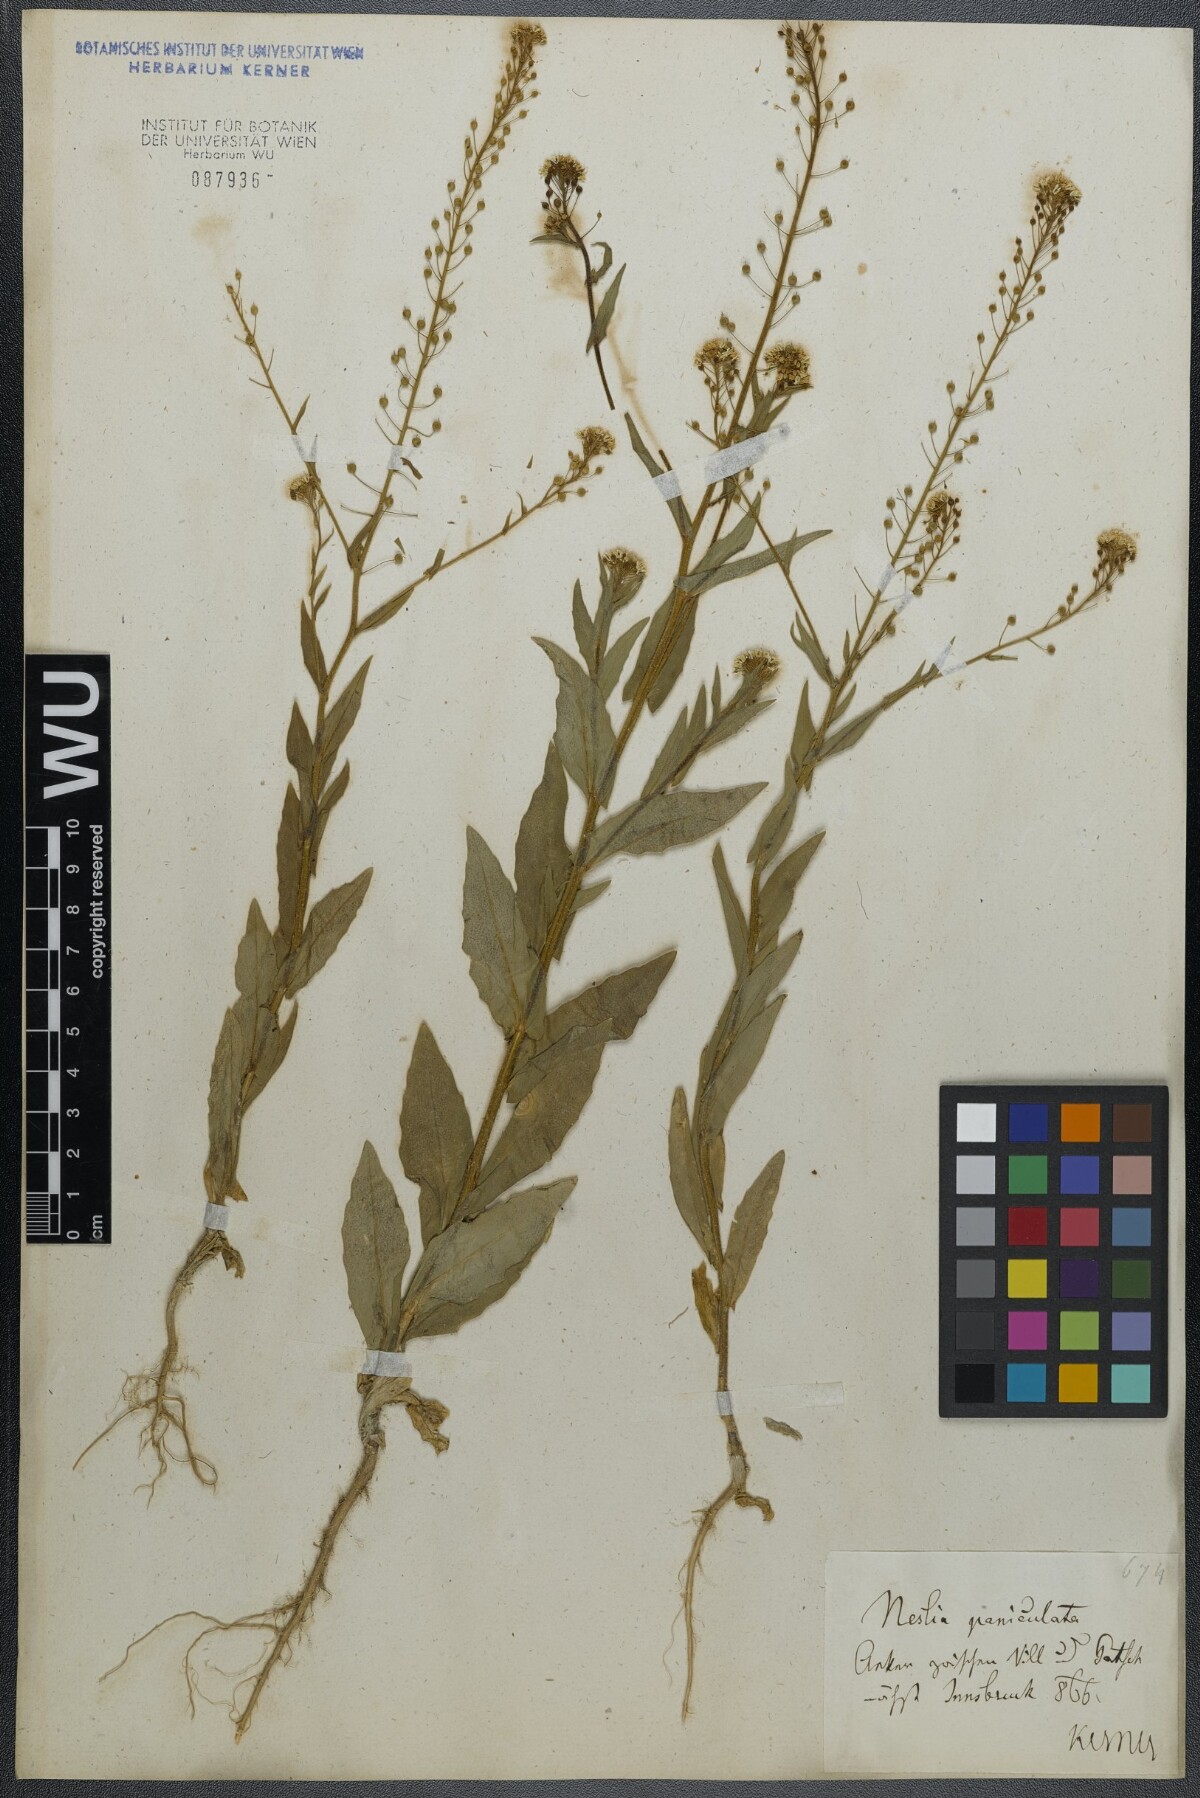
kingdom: Plantae
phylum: Tracheophyta
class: Magnoliopsida
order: Brassicales
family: Brassicaceae
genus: Neslia
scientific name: Neslia paniculata
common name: Ball mustard
